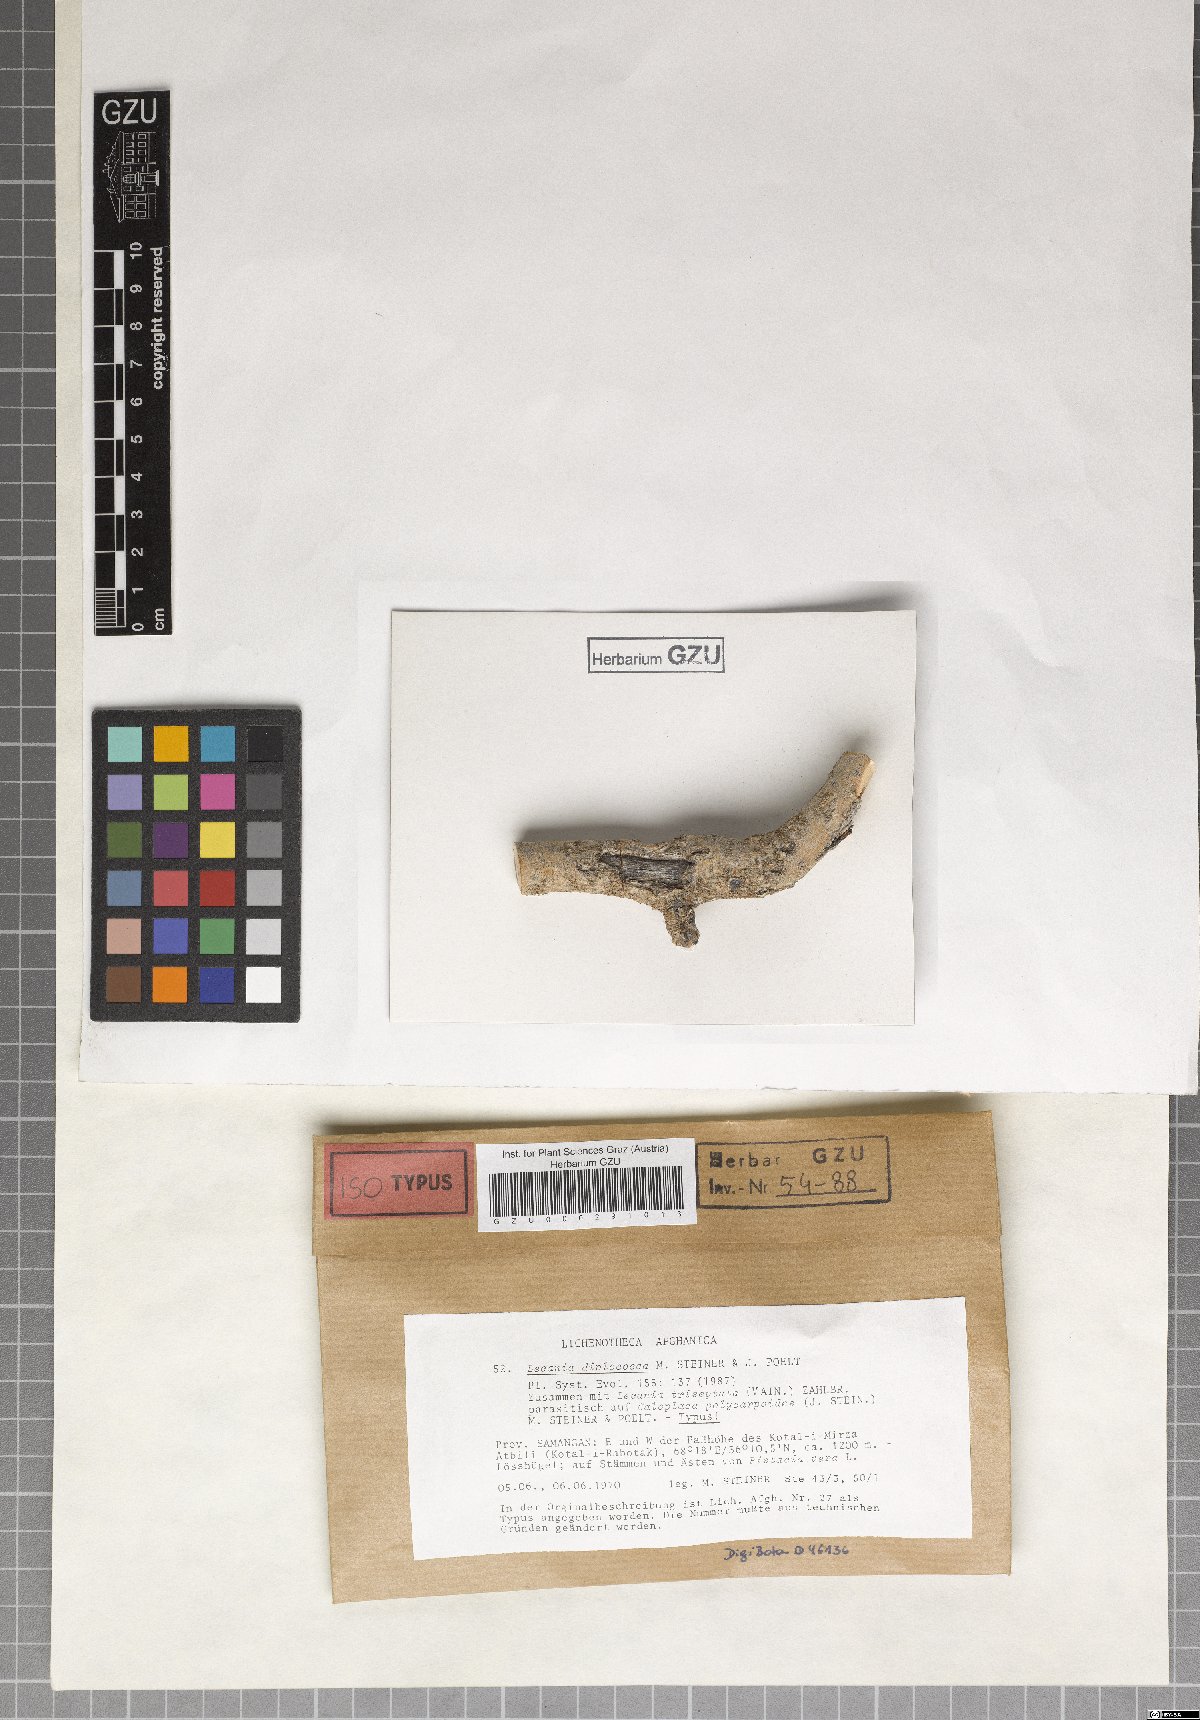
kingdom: Fungi
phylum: Ascomycota
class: Lecanoromycetes
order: Lecanorales
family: Ramalinaceae
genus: Lecania
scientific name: Lecania
